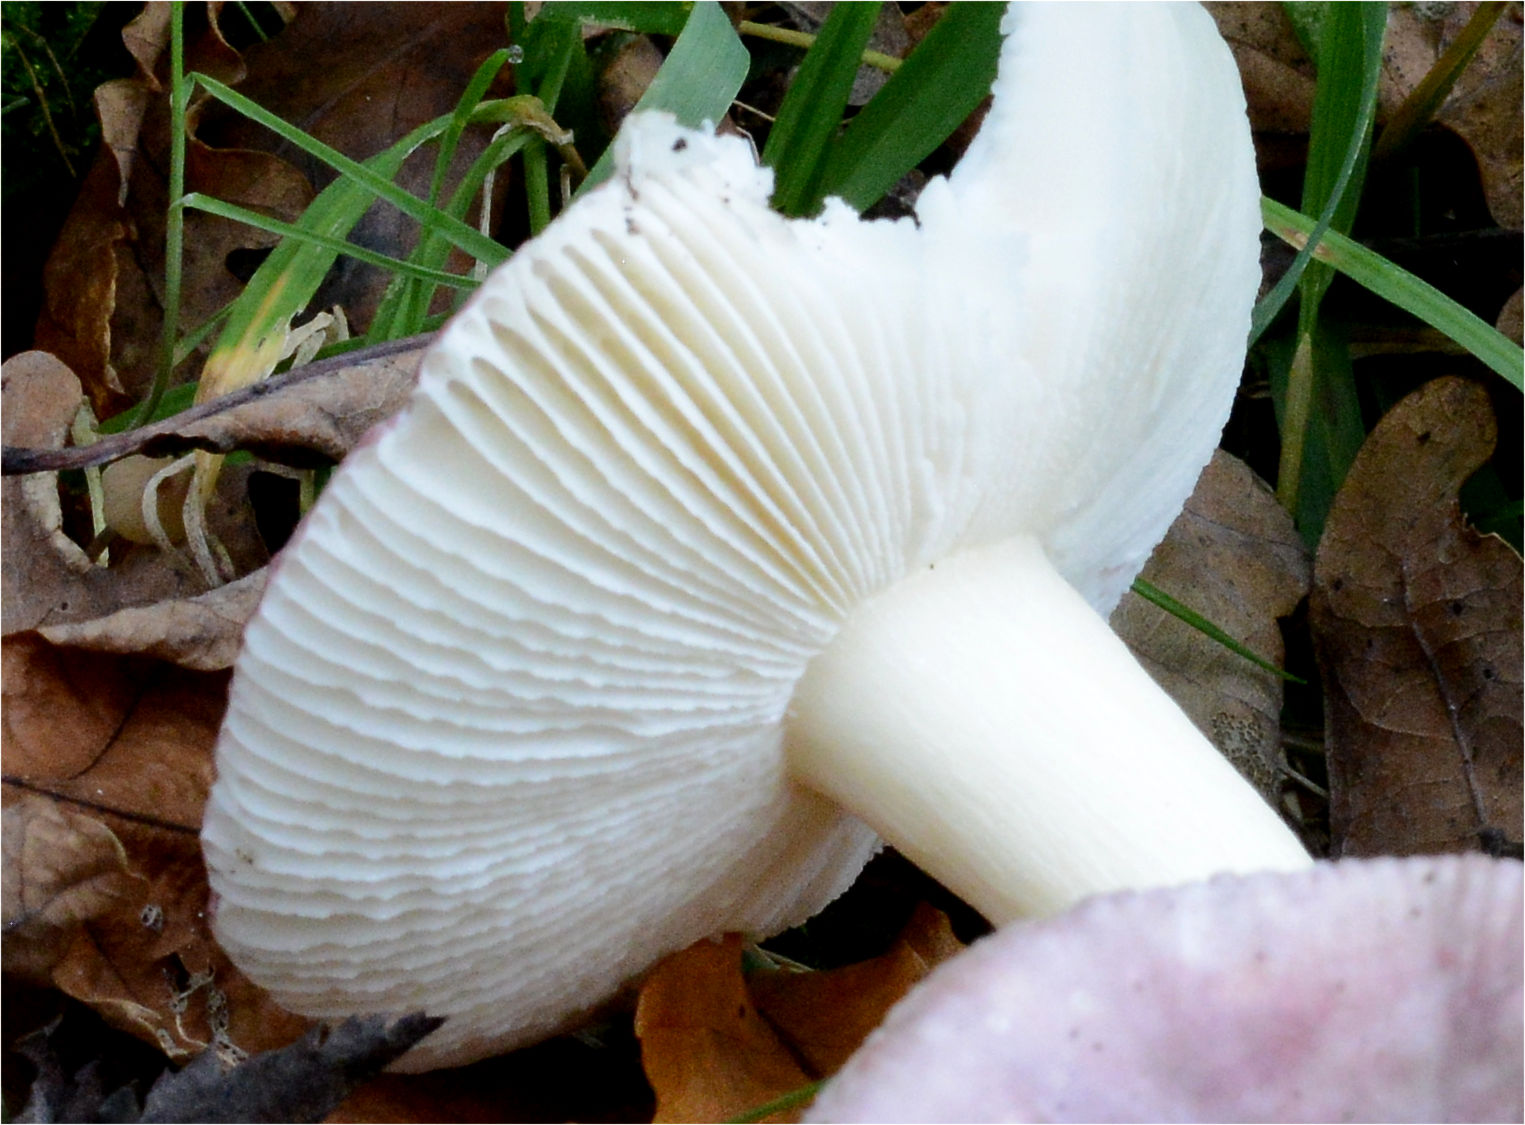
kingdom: Fungi
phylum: Basidiomycota
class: Agaricomycetes
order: Russulales
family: Russulaceae
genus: Russula
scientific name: Russula fragilis
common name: savbladet skørhat
